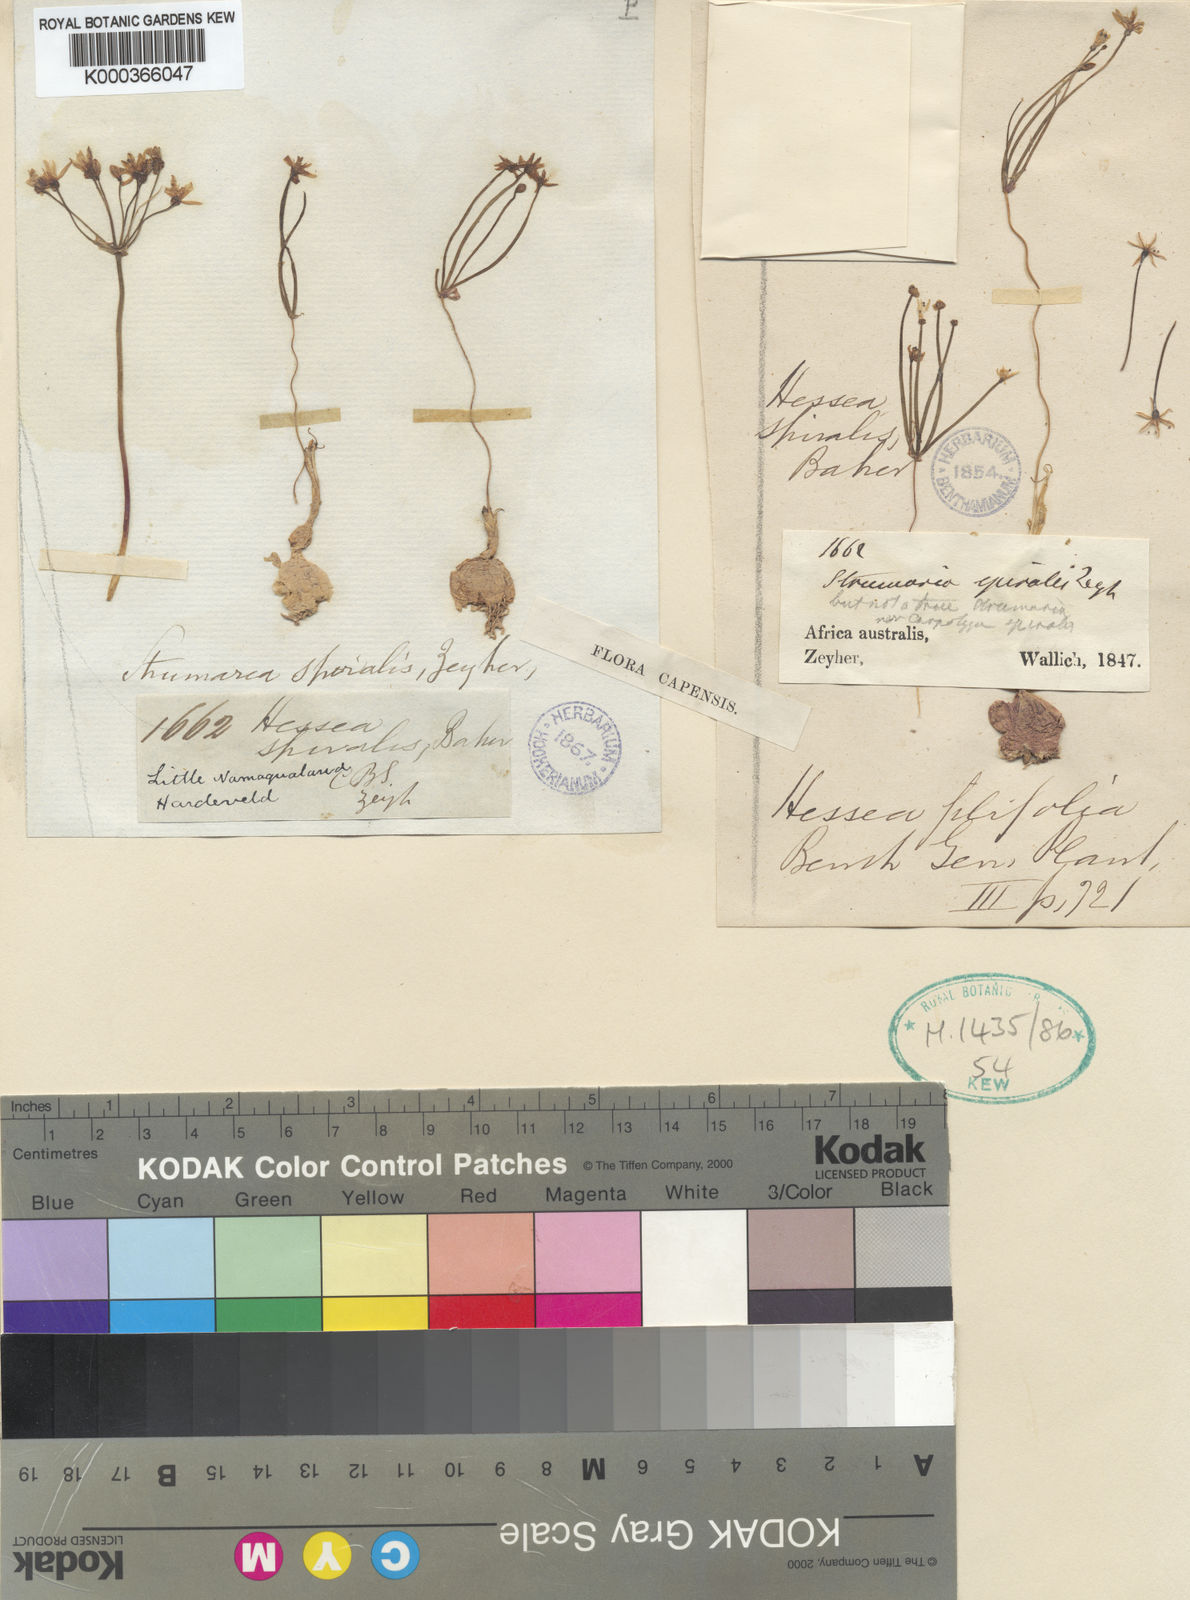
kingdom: Plantae
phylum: Tracheophyta
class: Liliopsida
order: Asparagales
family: Amaryllidaceae
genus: Strumaria
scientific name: Strumaria pygmaea
